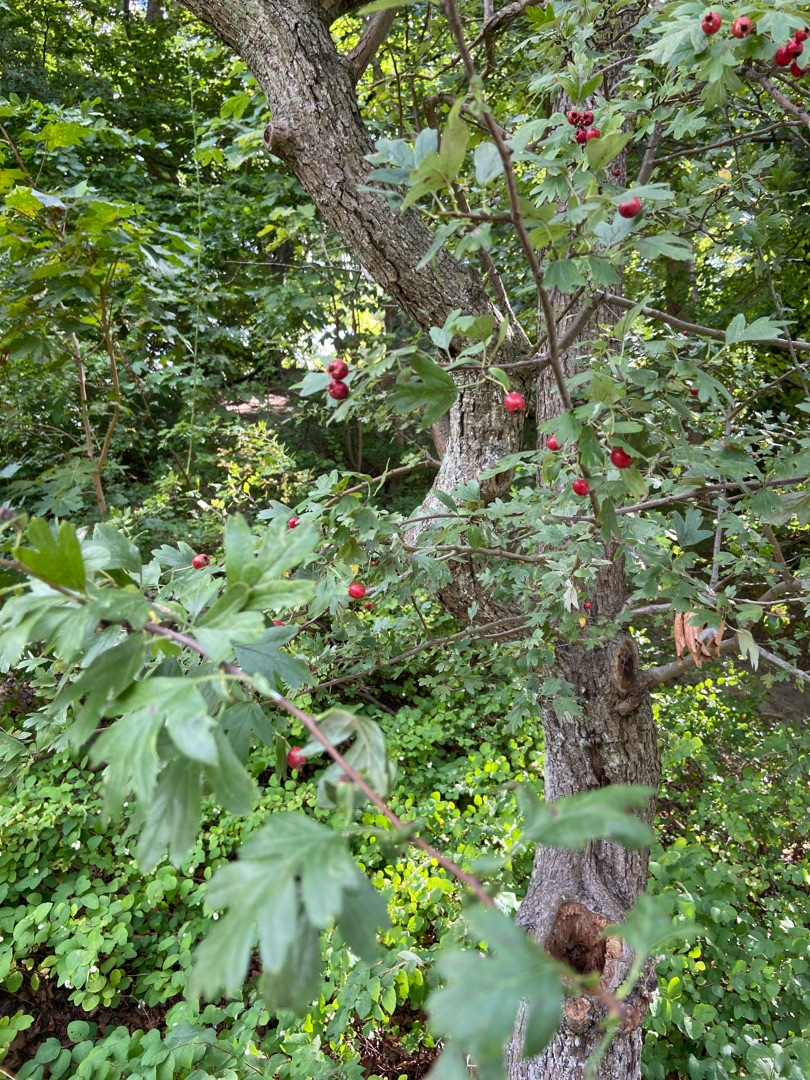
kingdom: Plantae
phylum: Tracheophyta
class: Magnoliopsida
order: Rosales
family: Rosaceae
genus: Crataegus
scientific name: Crataegus monogyna
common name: Engriflet hvidtjørn
